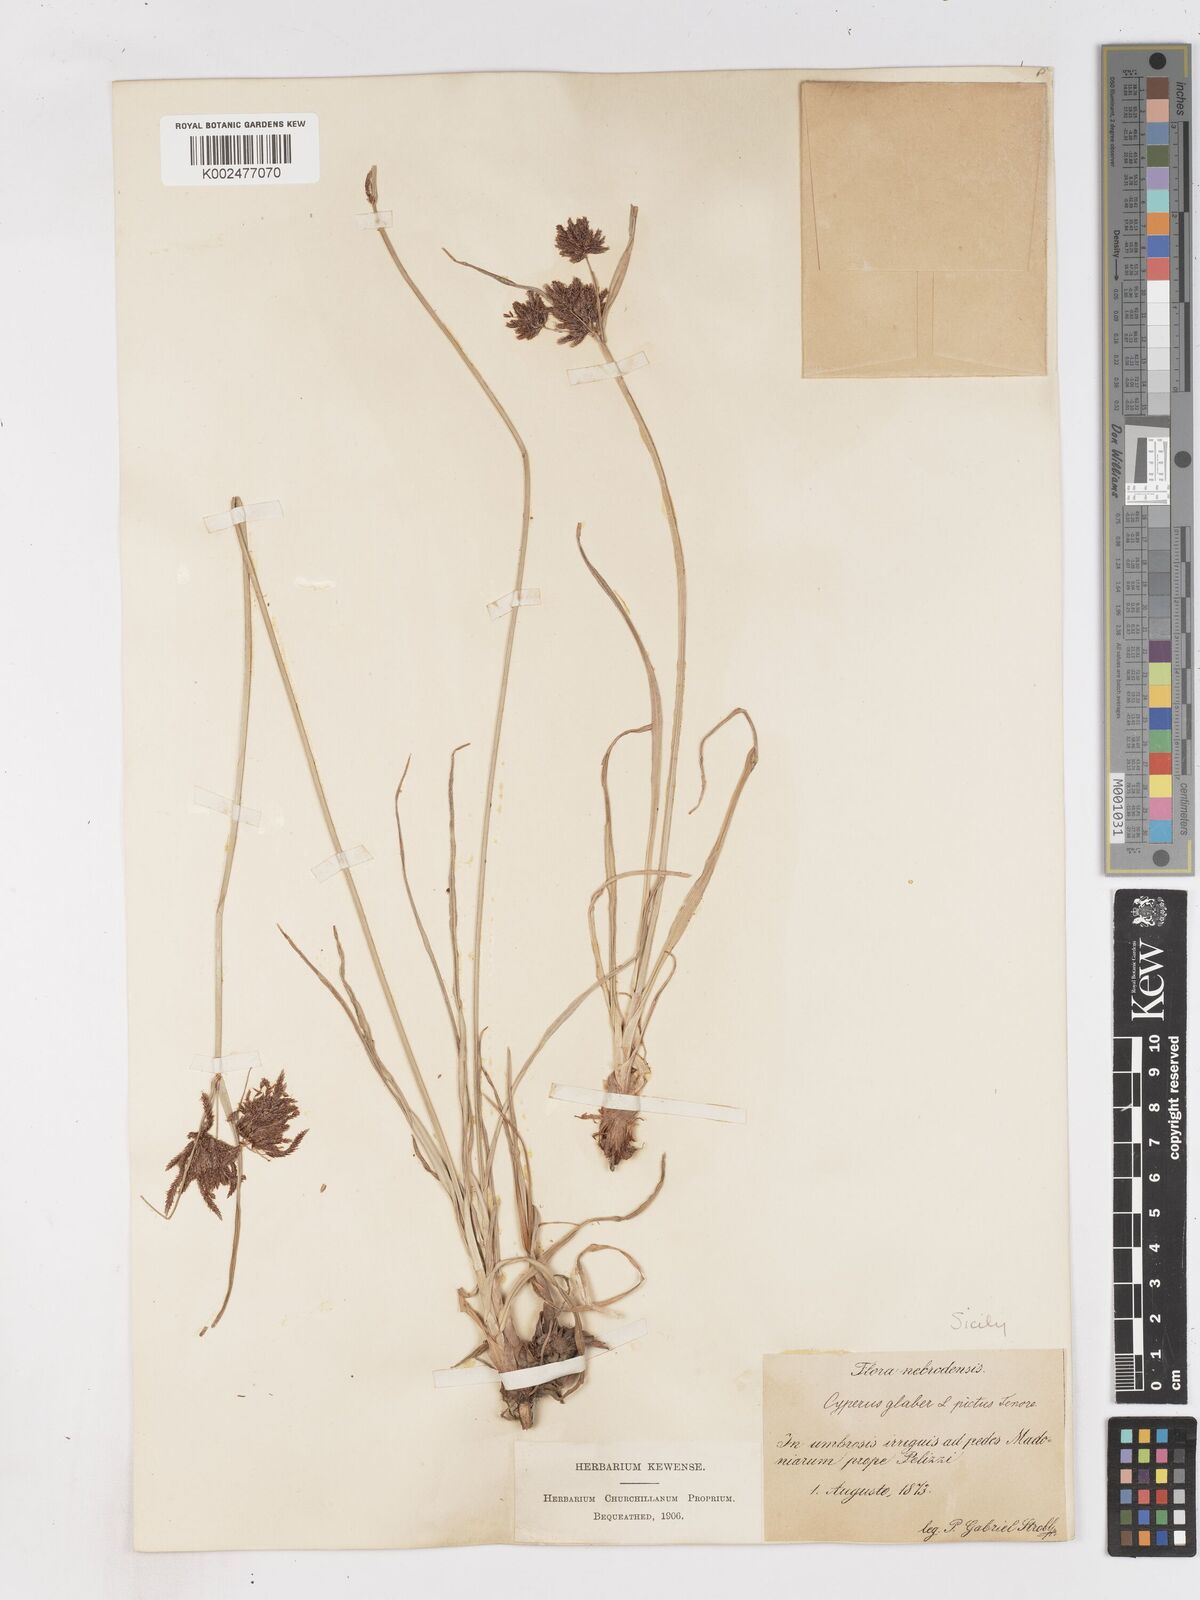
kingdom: Plantae
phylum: Tracheophyta
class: Liliopsida
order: Poales
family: Cyperaceae
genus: Cyperus
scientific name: Cyperus glaber
